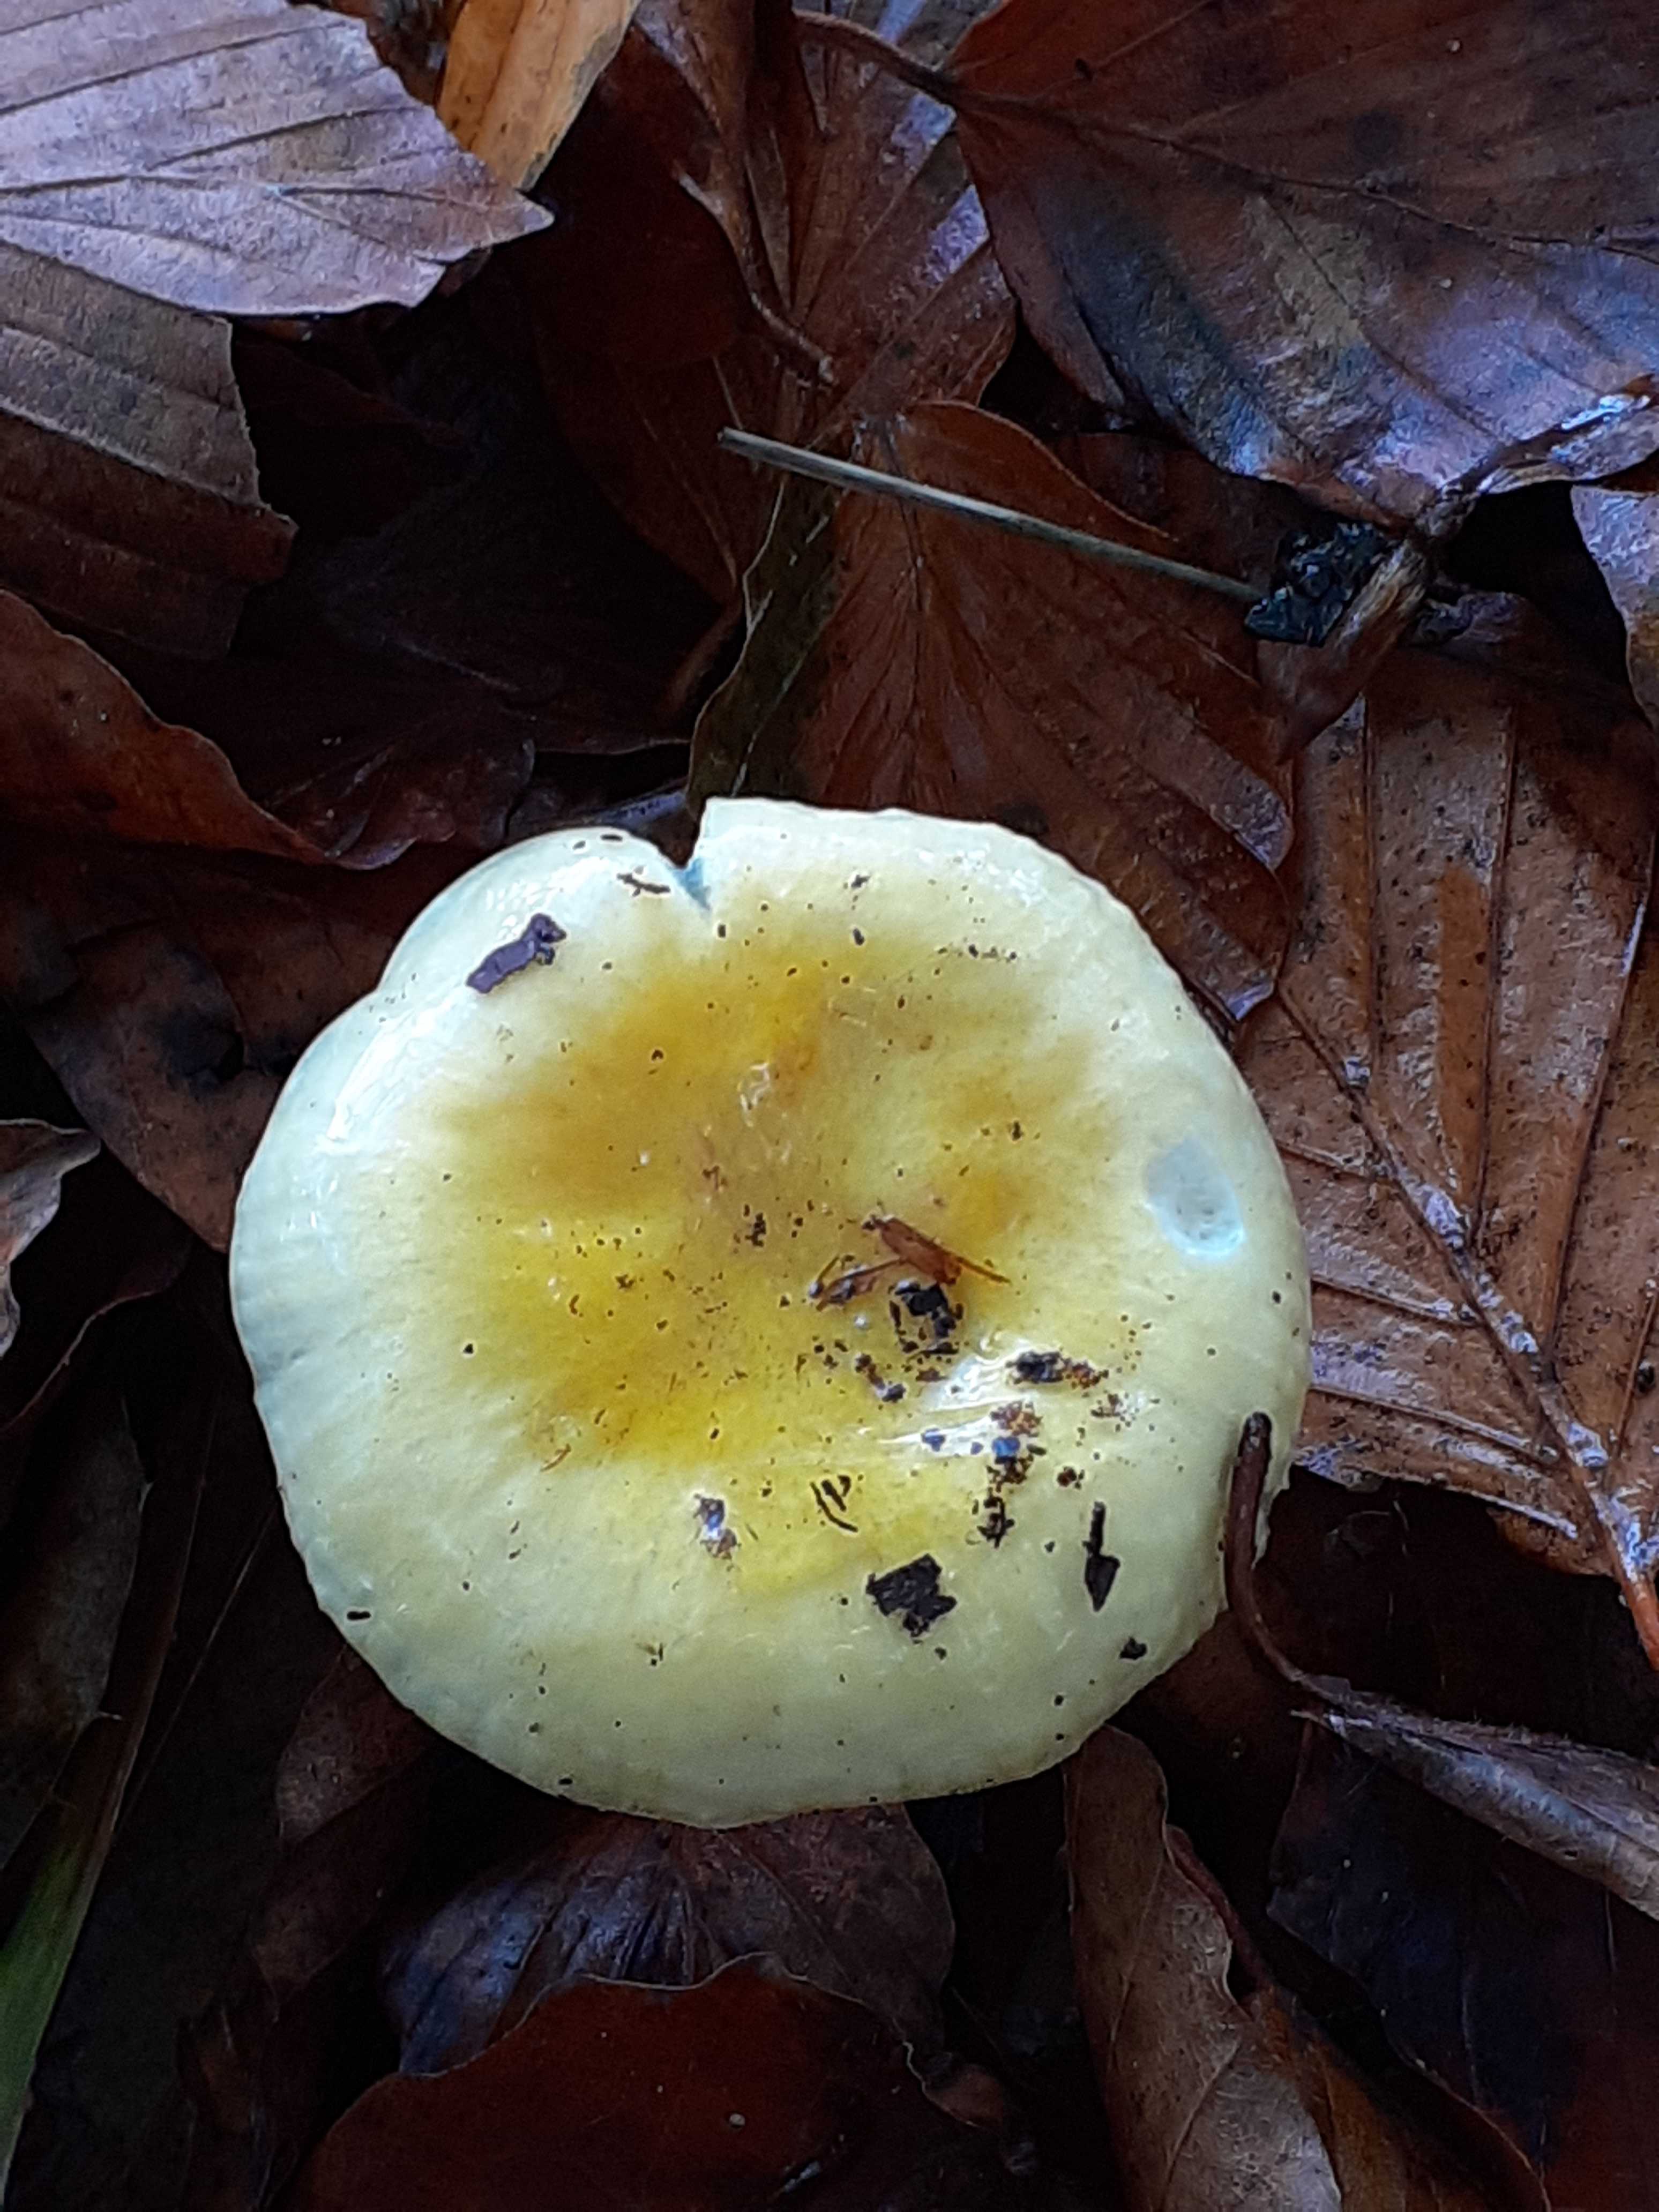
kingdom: Fungi
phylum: Basidiomycota
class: Agaricomycetes
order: Russulales
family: Russulaceae
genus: Russula
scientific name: Russula solaris
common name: sol-skørhat
